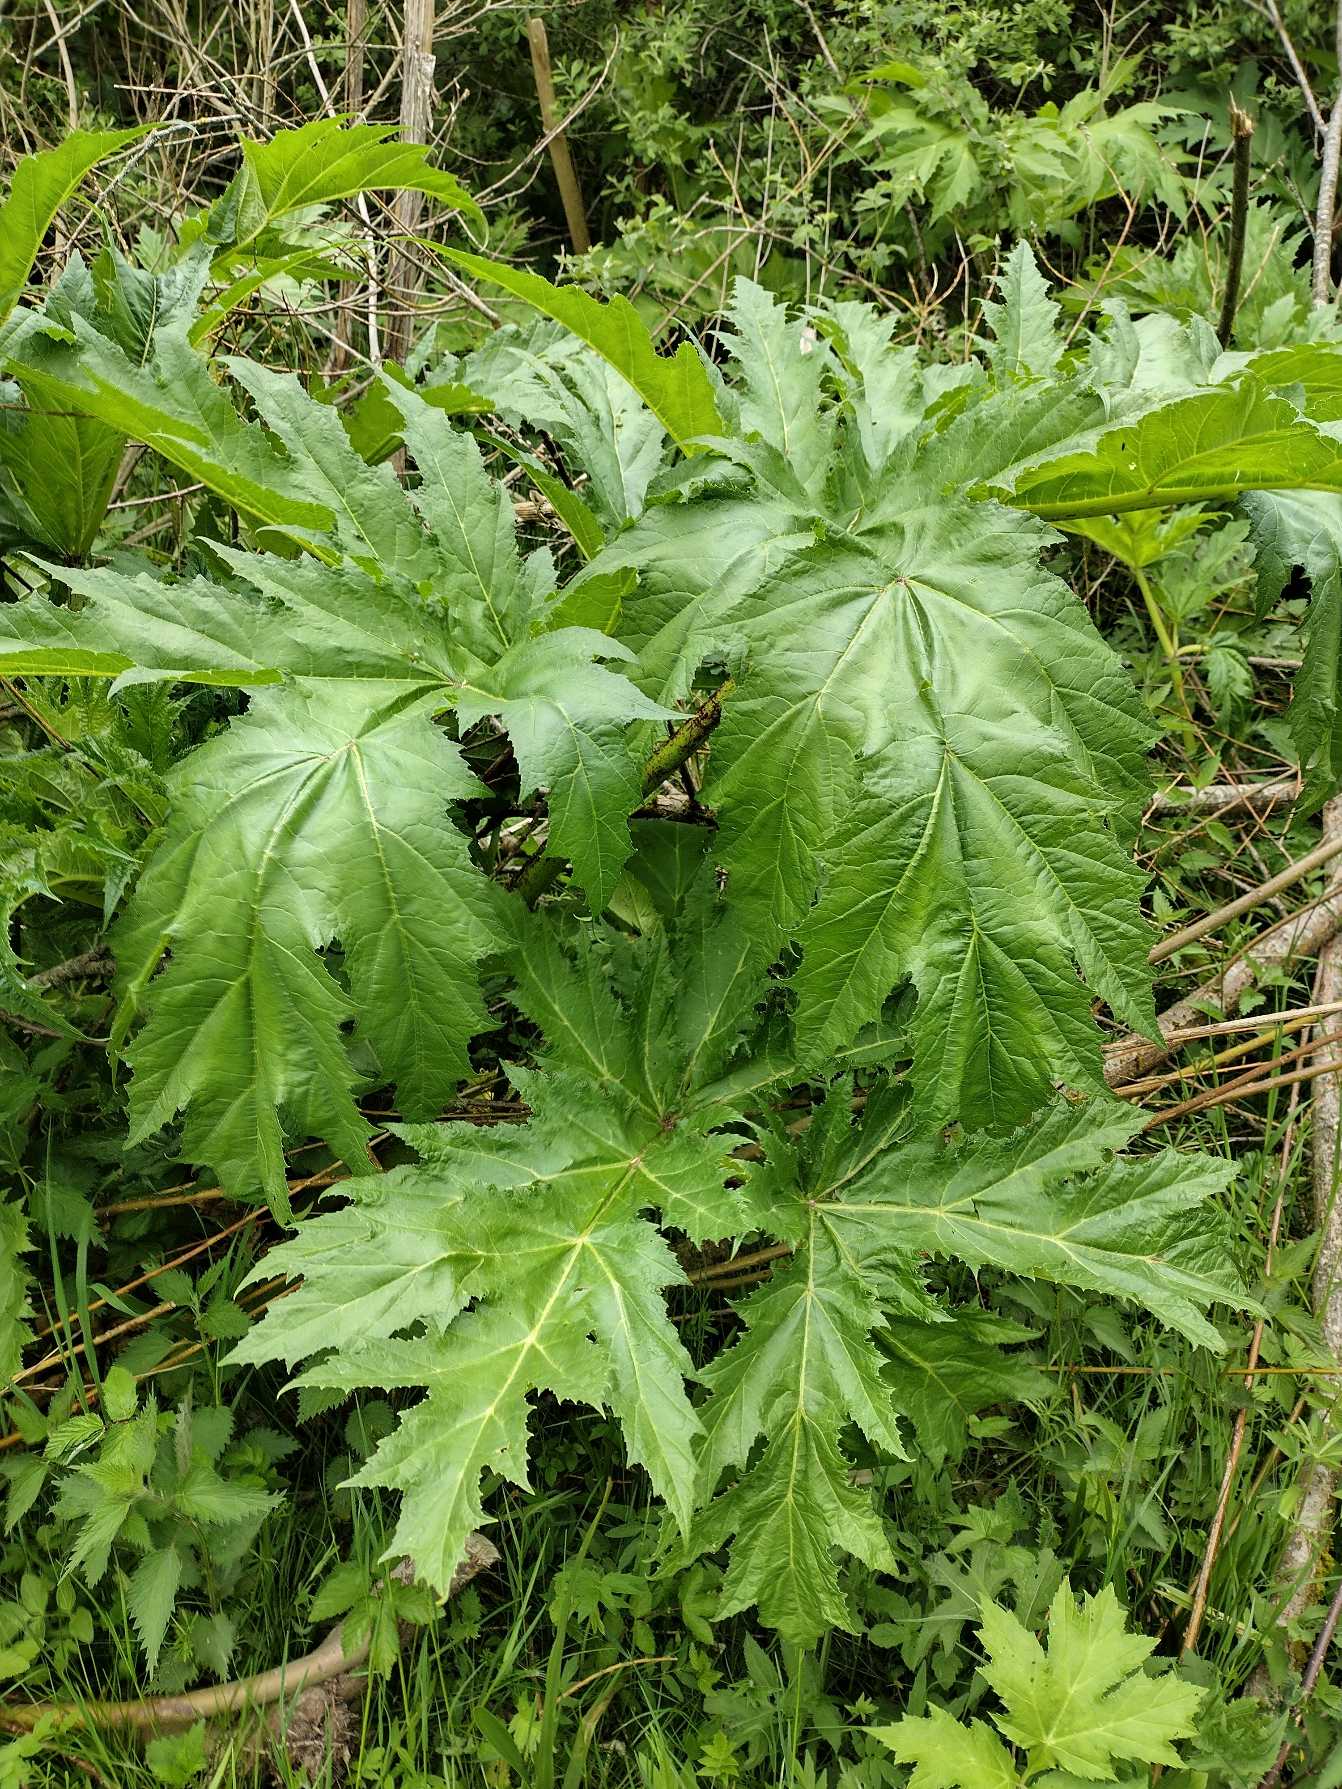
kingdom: Plantae
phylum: Tracheophyta
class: Magnoliopsida
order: Apiales
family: Apiaceae
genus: Heracleum
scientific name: Heracleum mantegazzianum
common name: Kæmpe-bjørneklo
